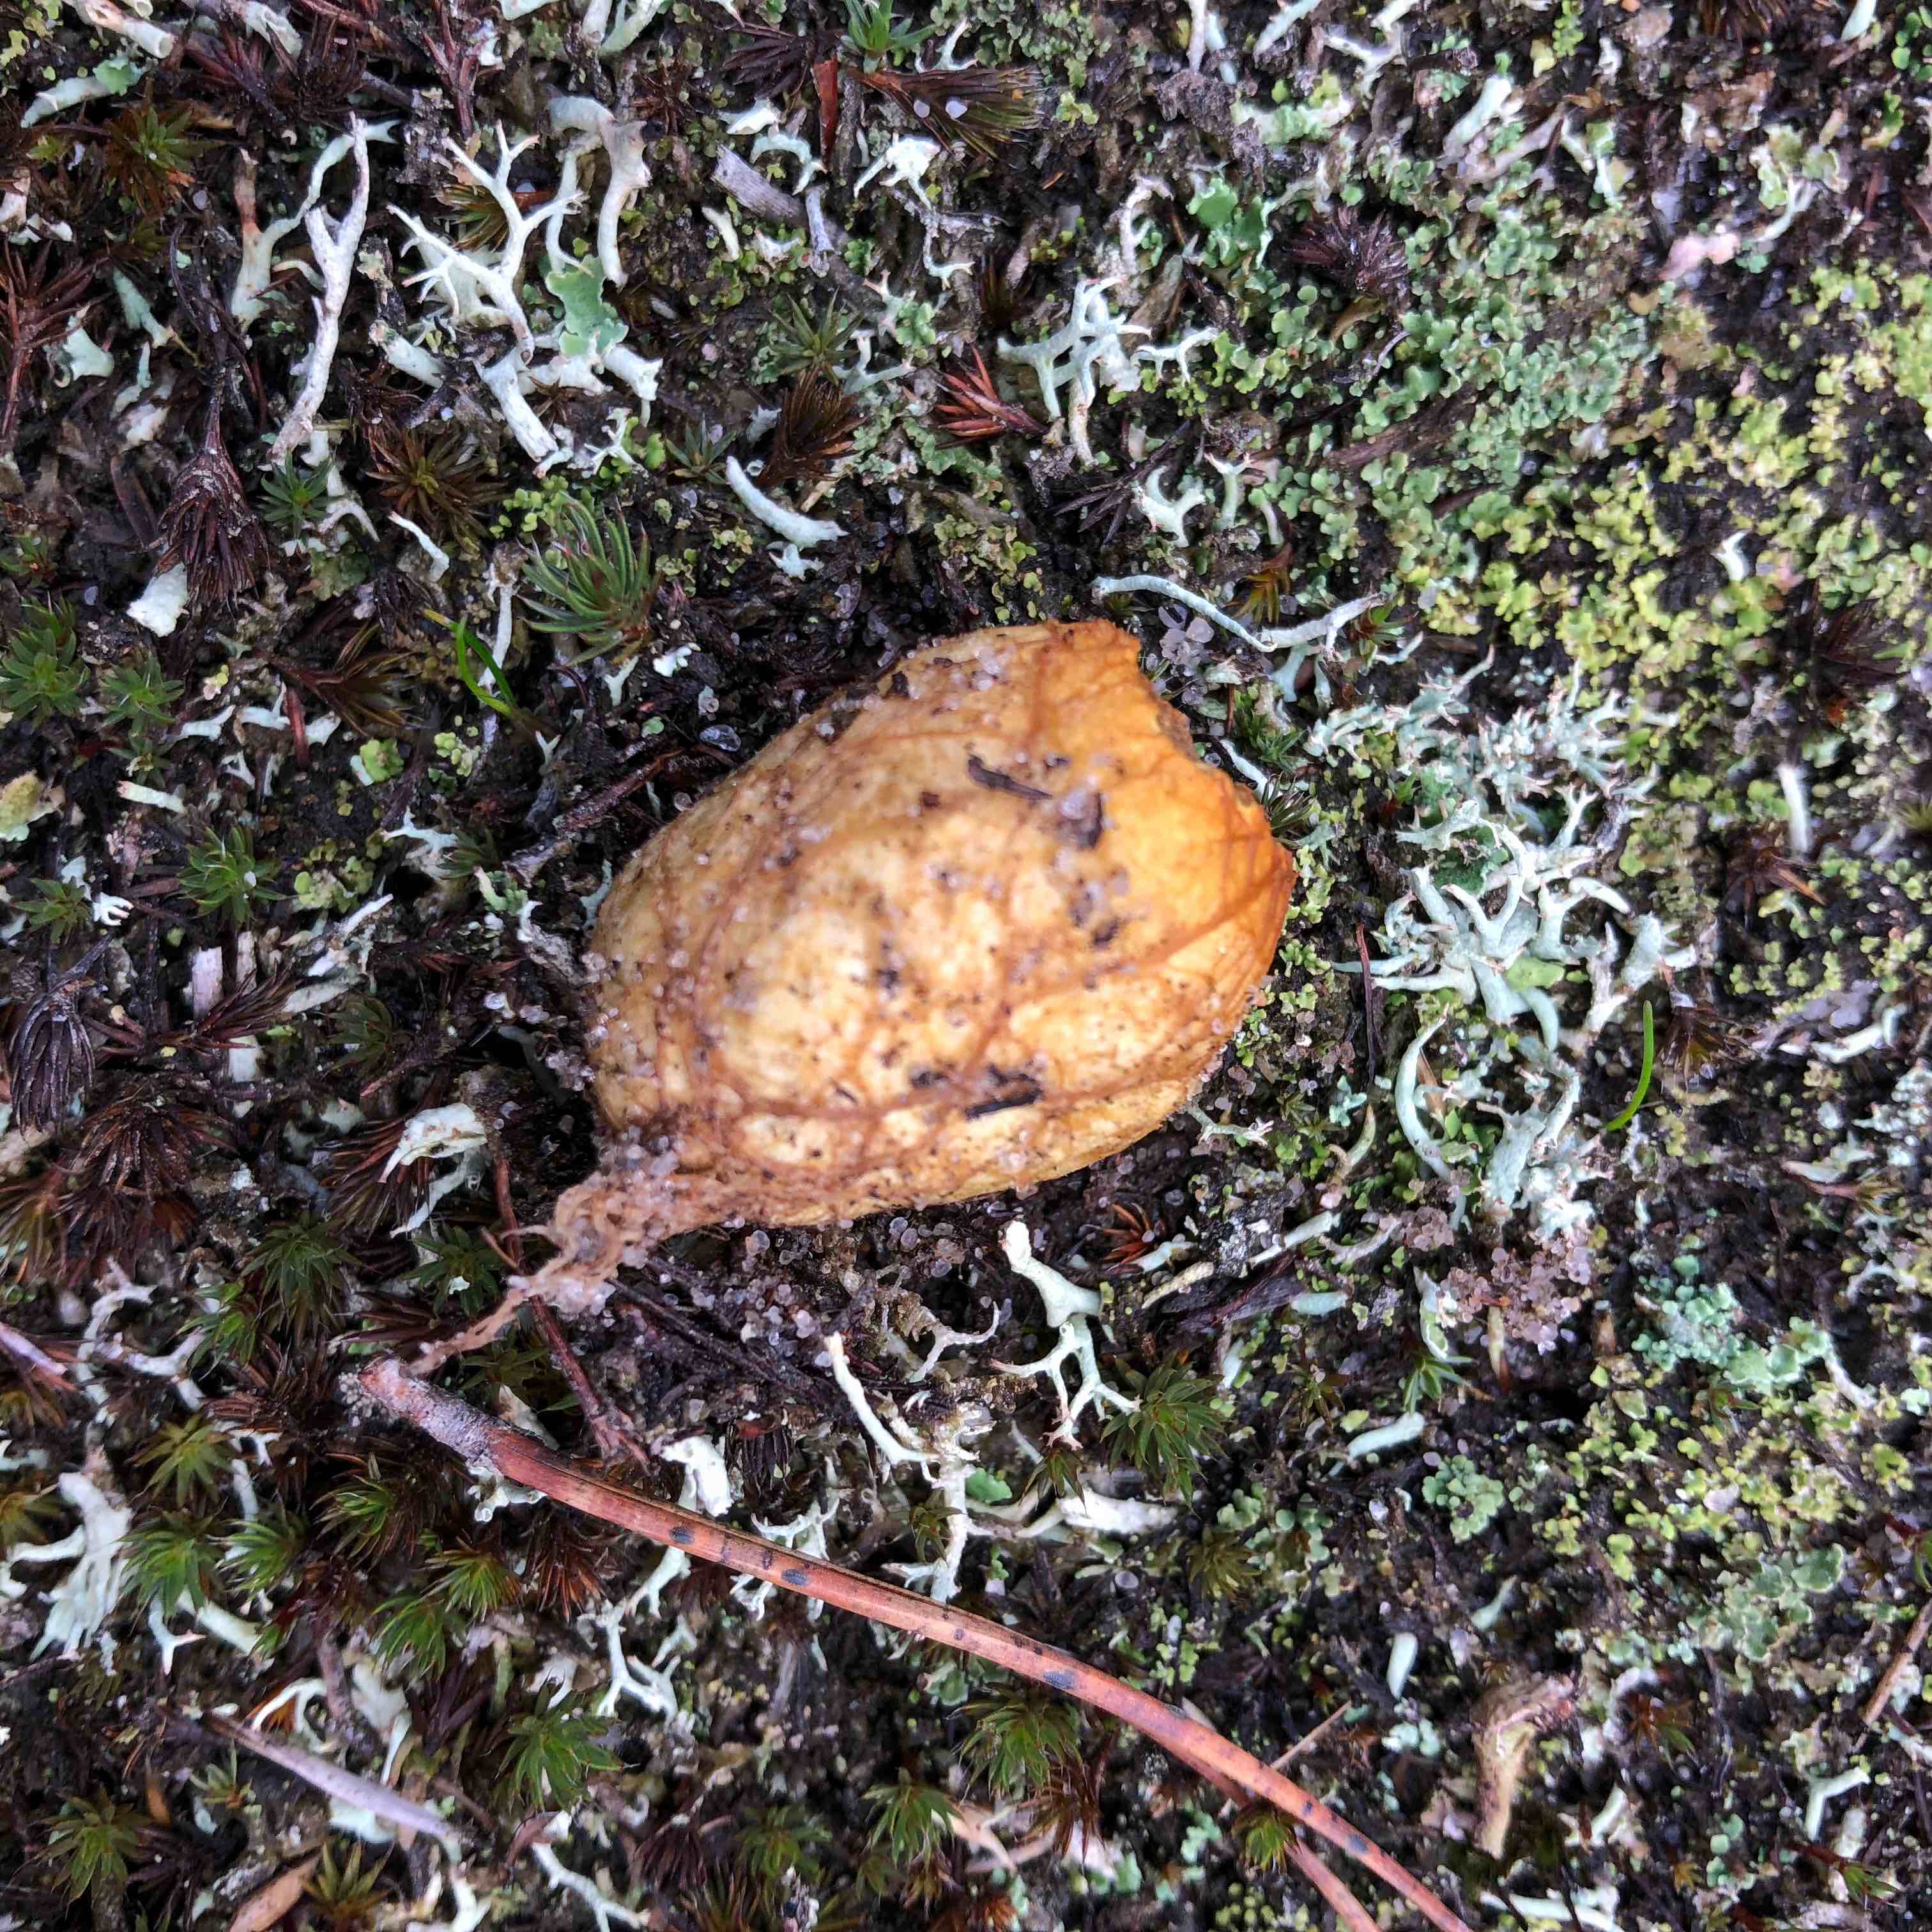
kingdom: Fungi
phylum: Basidiomycota
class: Agaricomycetes
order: Boletales
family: Rhizopogonaceae
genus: Rhizopogon
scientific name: Rhizopogon obtextus
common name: gul skægtrøffel
